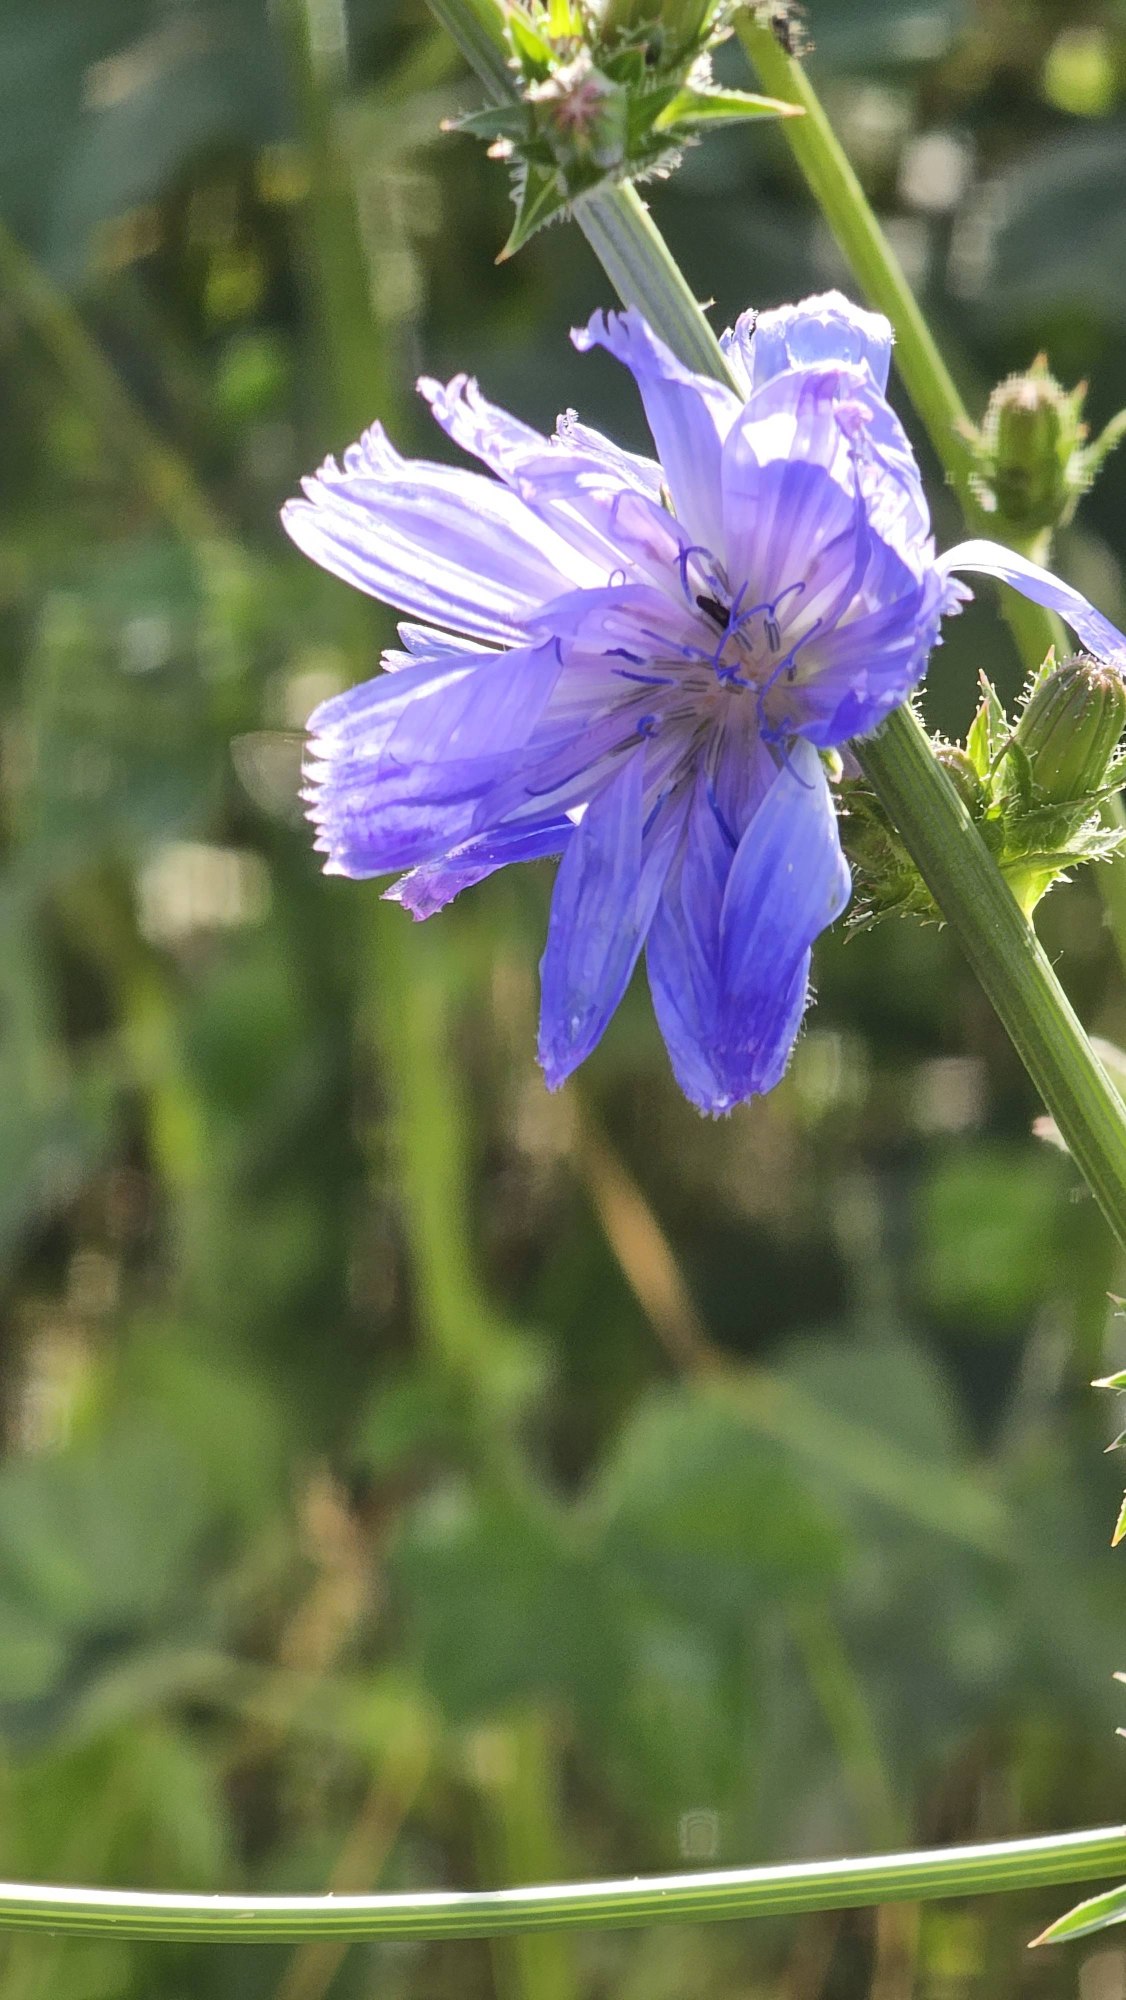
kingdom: Plantae
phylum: Tracheophyta
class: Magnoliopsida
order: Asterales
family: Asteraceae
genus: Cichorium
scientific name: Cichorium intybus
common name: Cikorie
